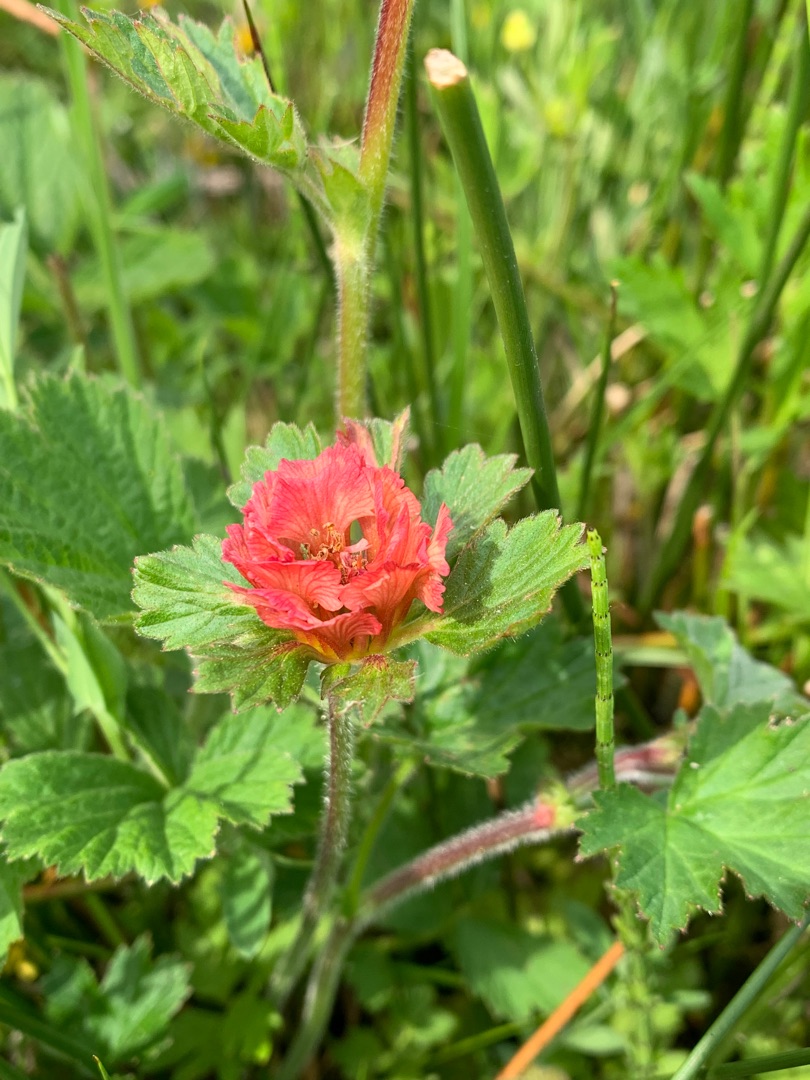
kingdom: Plantae
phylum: Tracheophyta
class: Magnoliopsida
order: Rosales
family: Rosaceae
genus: Geum
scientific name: Geum rivale
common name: Eng-nellikerod
